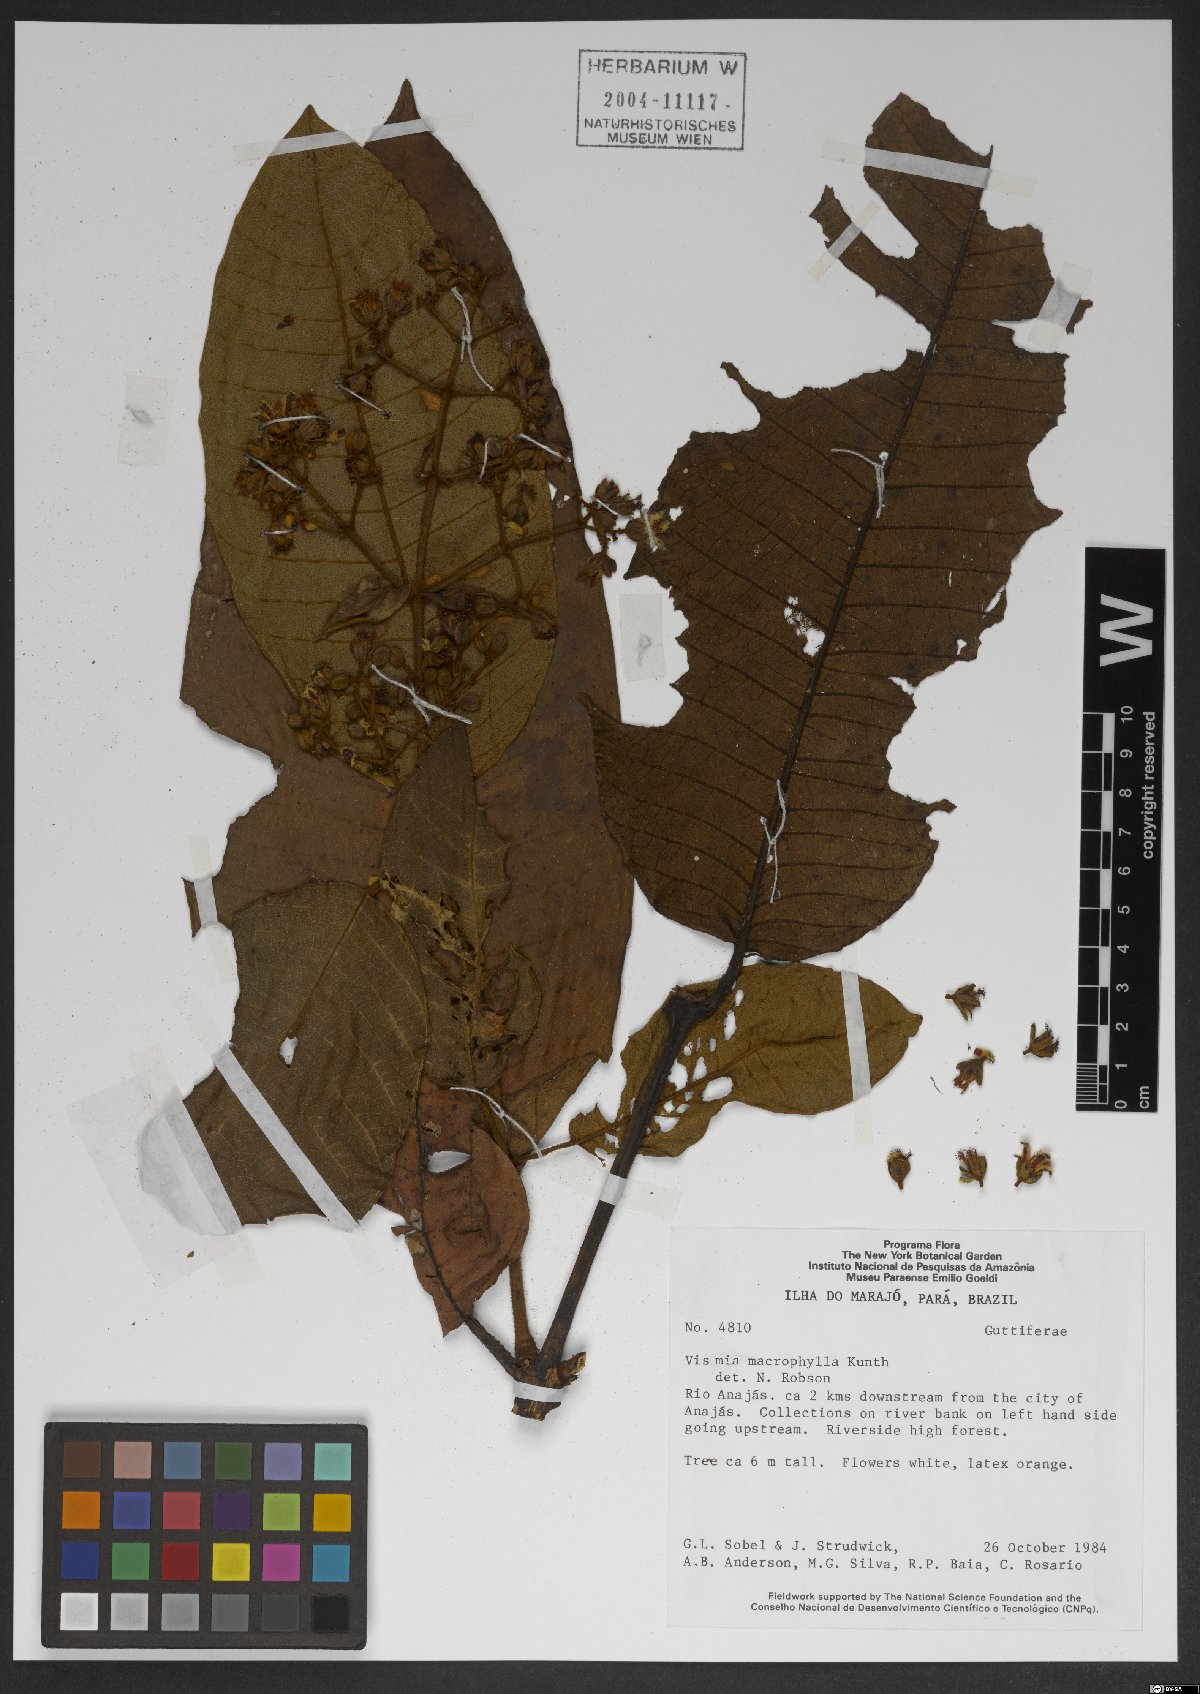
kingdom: Plantae
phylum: Tracheophyta
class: Magnoliopsida
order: Malpighiales
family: Hypericaceae
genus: Vismia
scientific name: Vismia macrophylla
